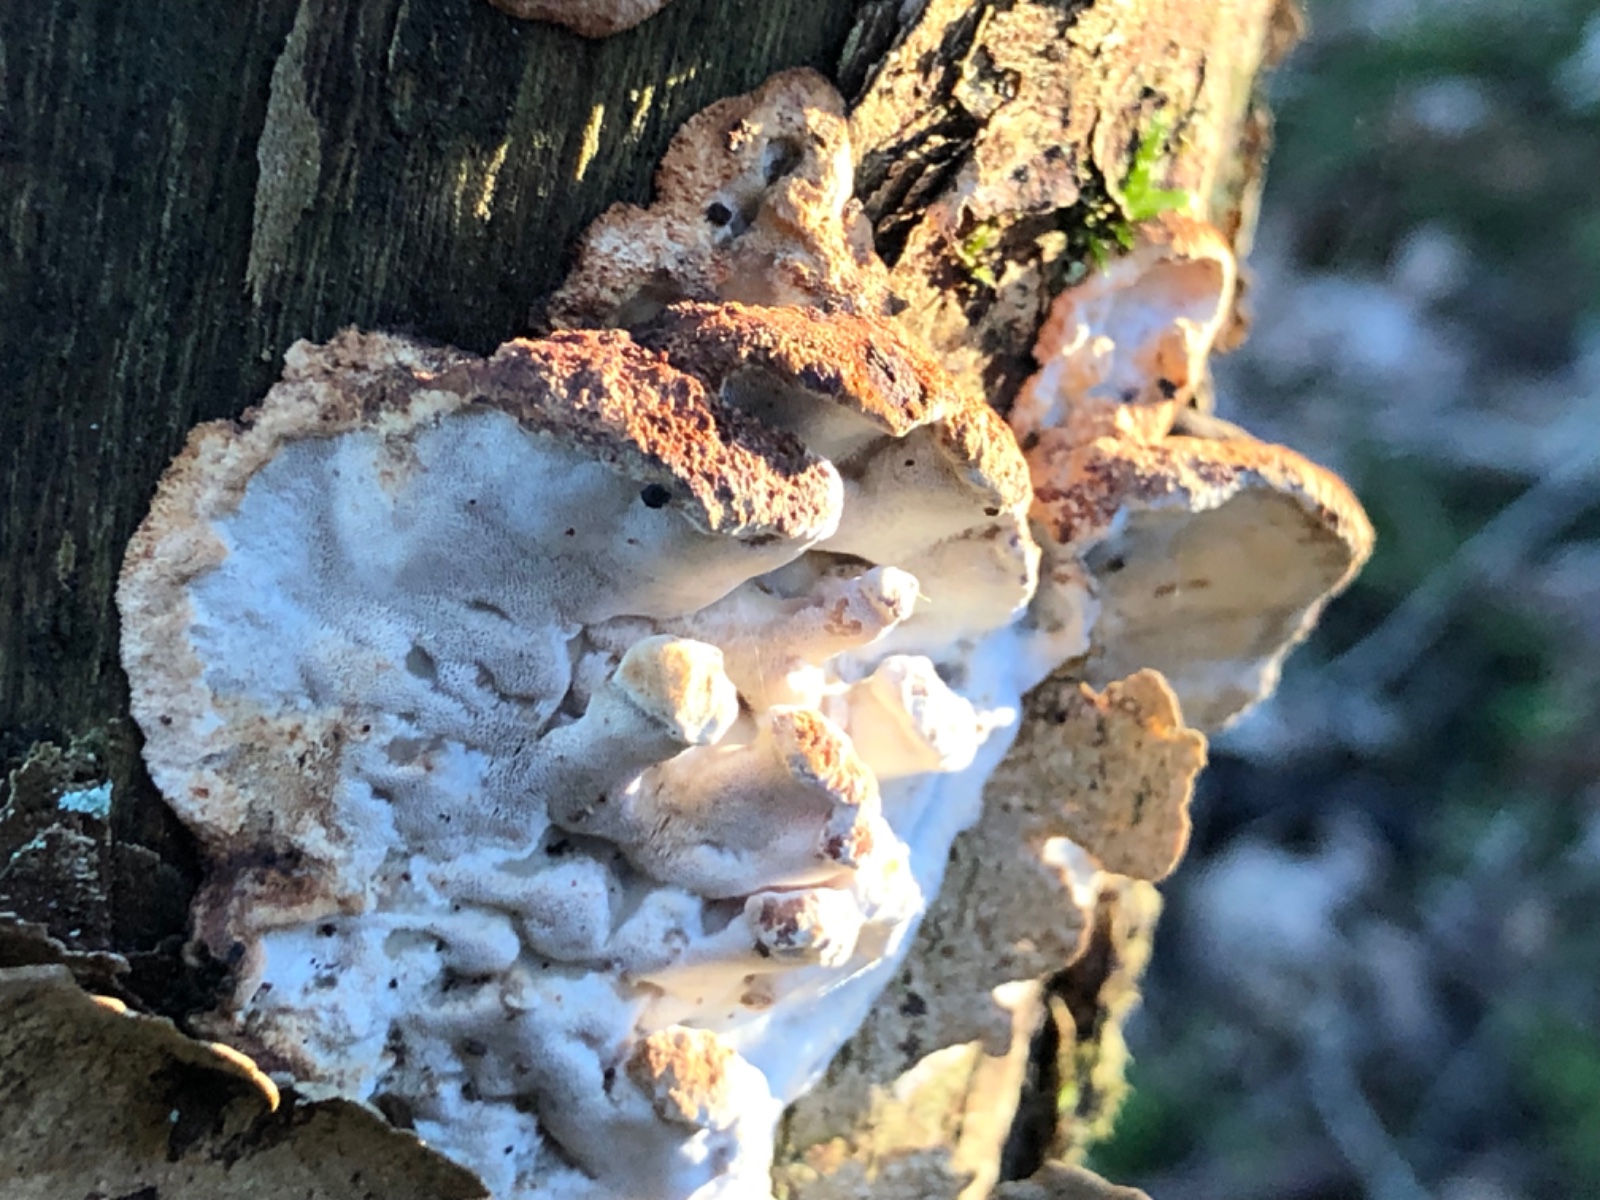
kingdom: Fungi
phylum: Basidiomycota
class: Agaricomycetes
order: Polyporales
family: Incrustoporiaceae
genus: Skeletocutis
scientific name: Skeletocutis nemoralis
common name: stor krystalporesvamp
